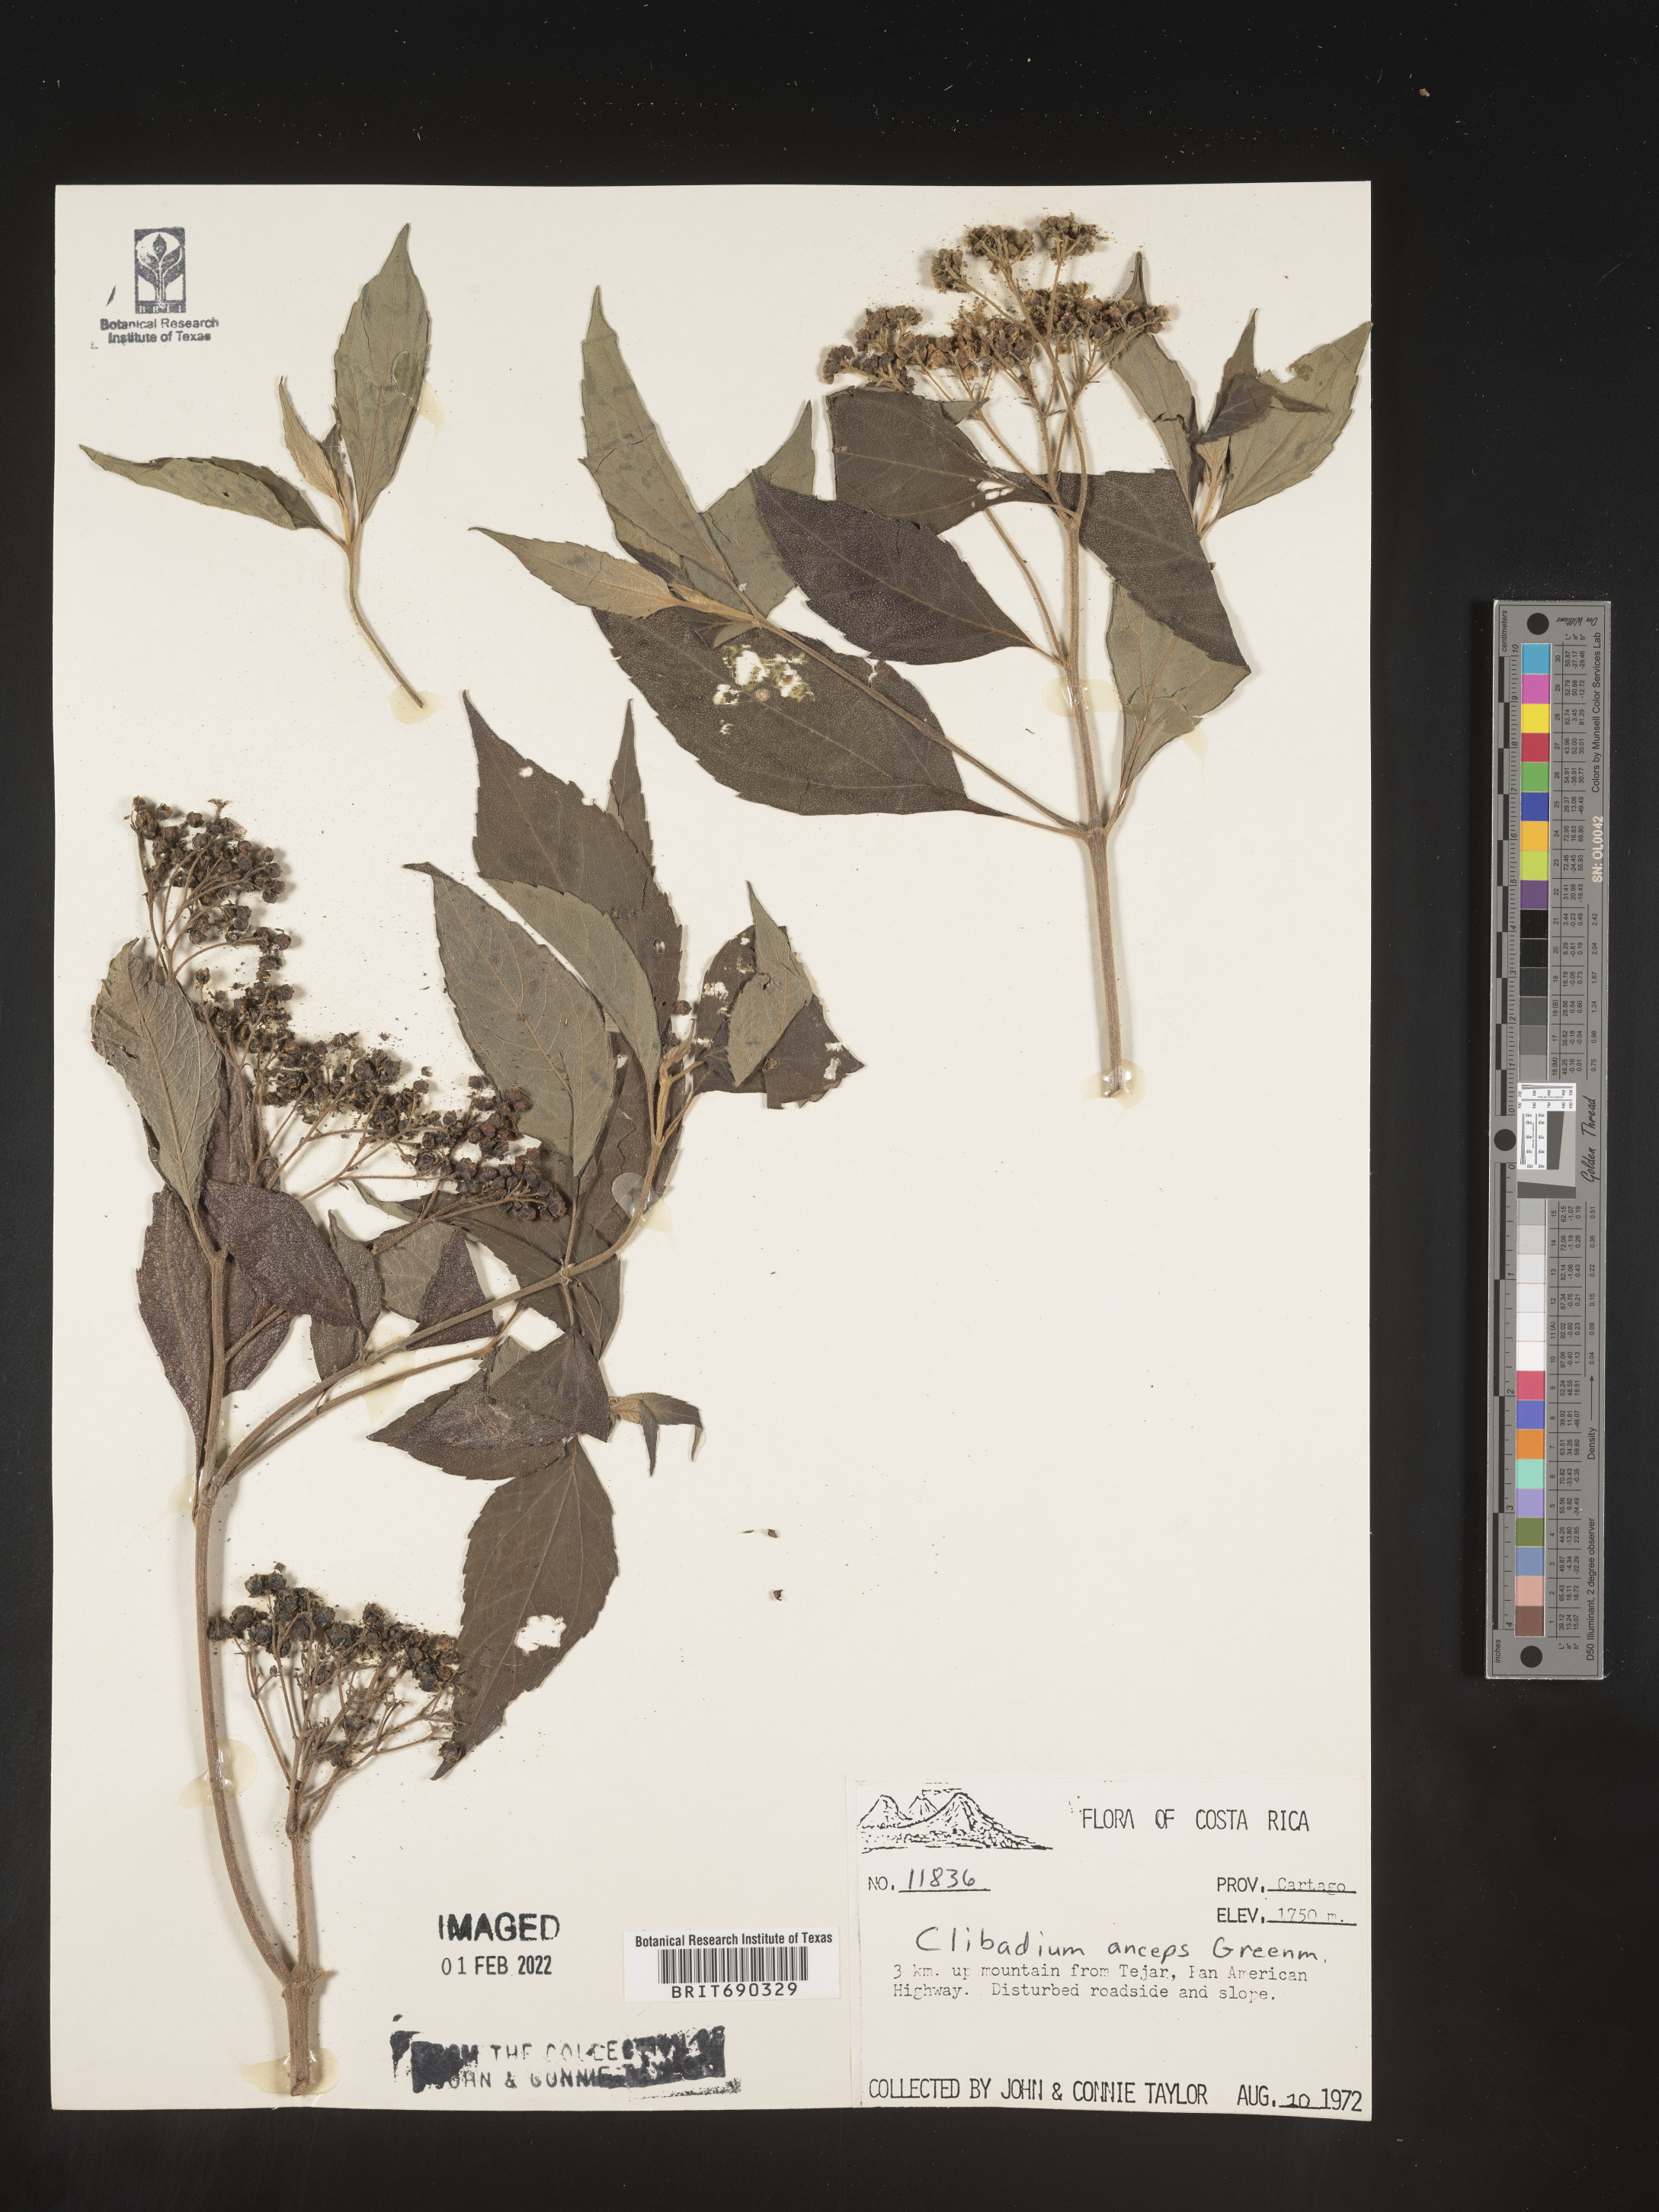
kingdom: Plantae
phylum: Tracheophyta
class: Magnoliopsida
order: Asterales
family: Asteraceae
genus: Clibadium
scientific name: Clibadium
